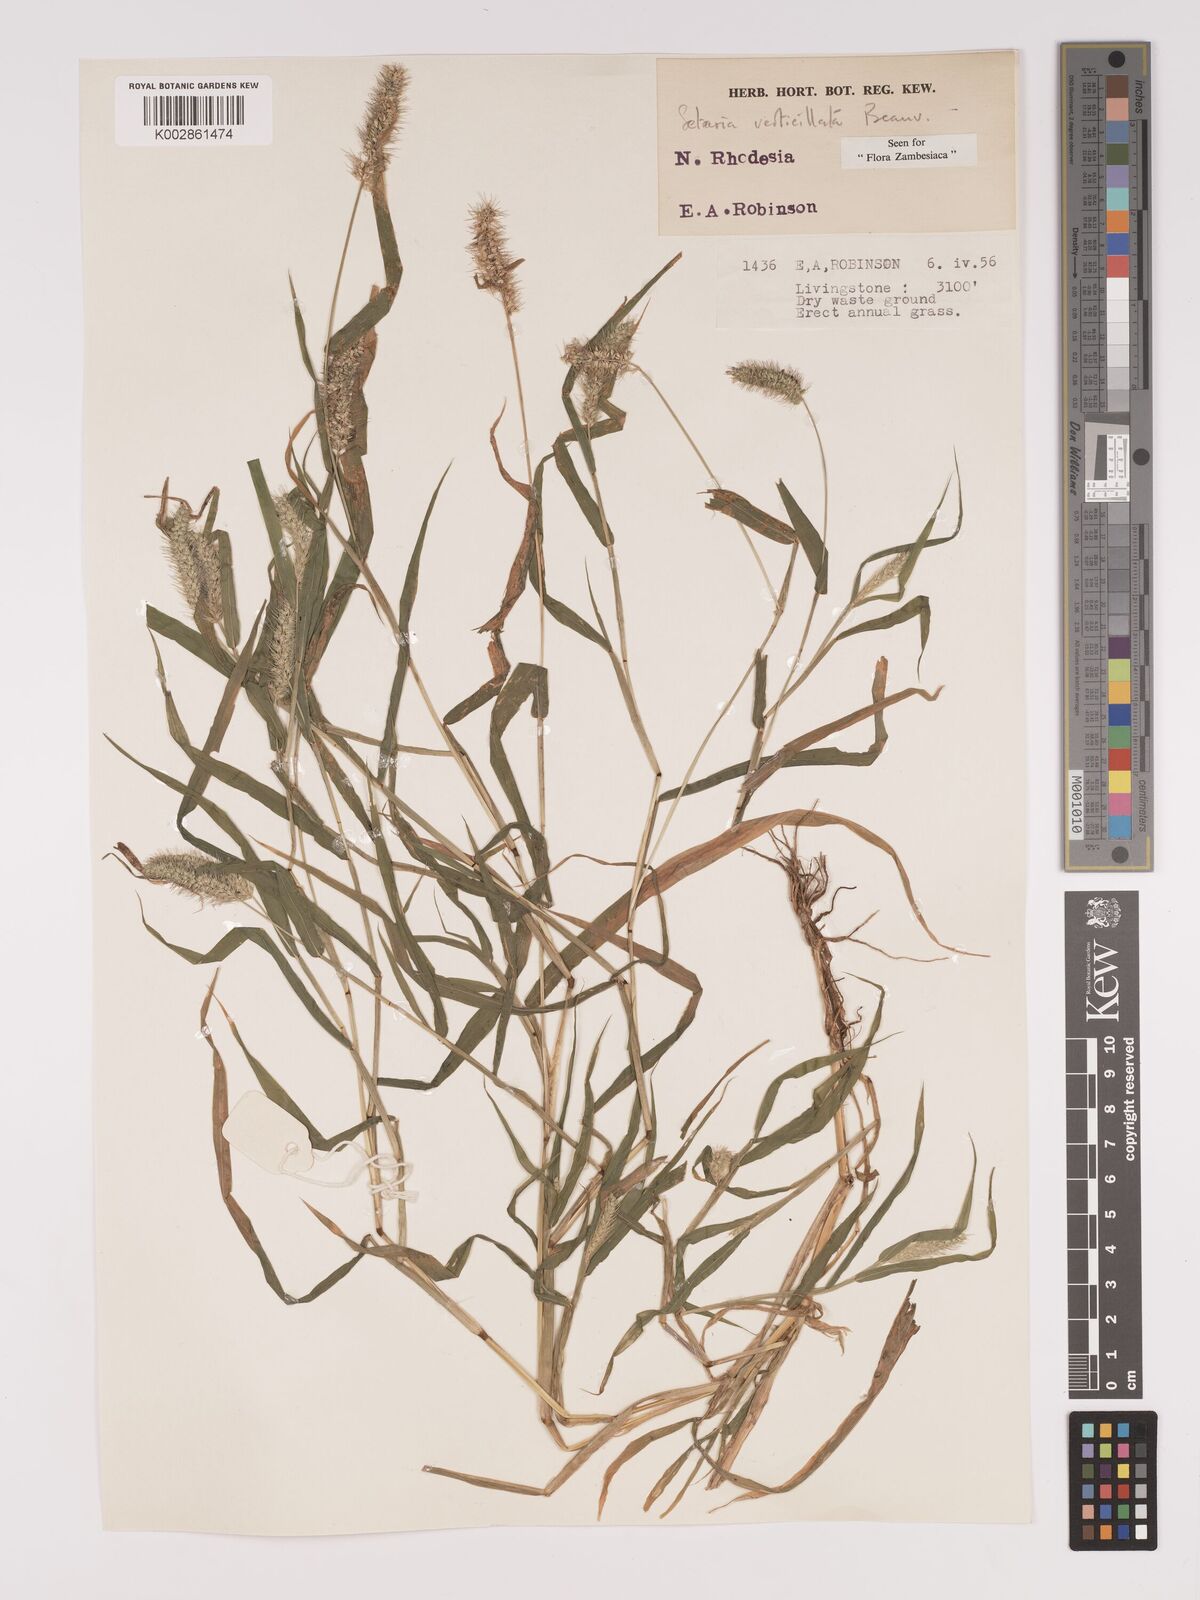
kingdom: Plantae
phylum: Tracheophyta
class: Liliopsida
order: Poales
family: Poaceae
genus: Setaria
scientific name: Setaria verticillata
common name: Hooked bristlegrass
